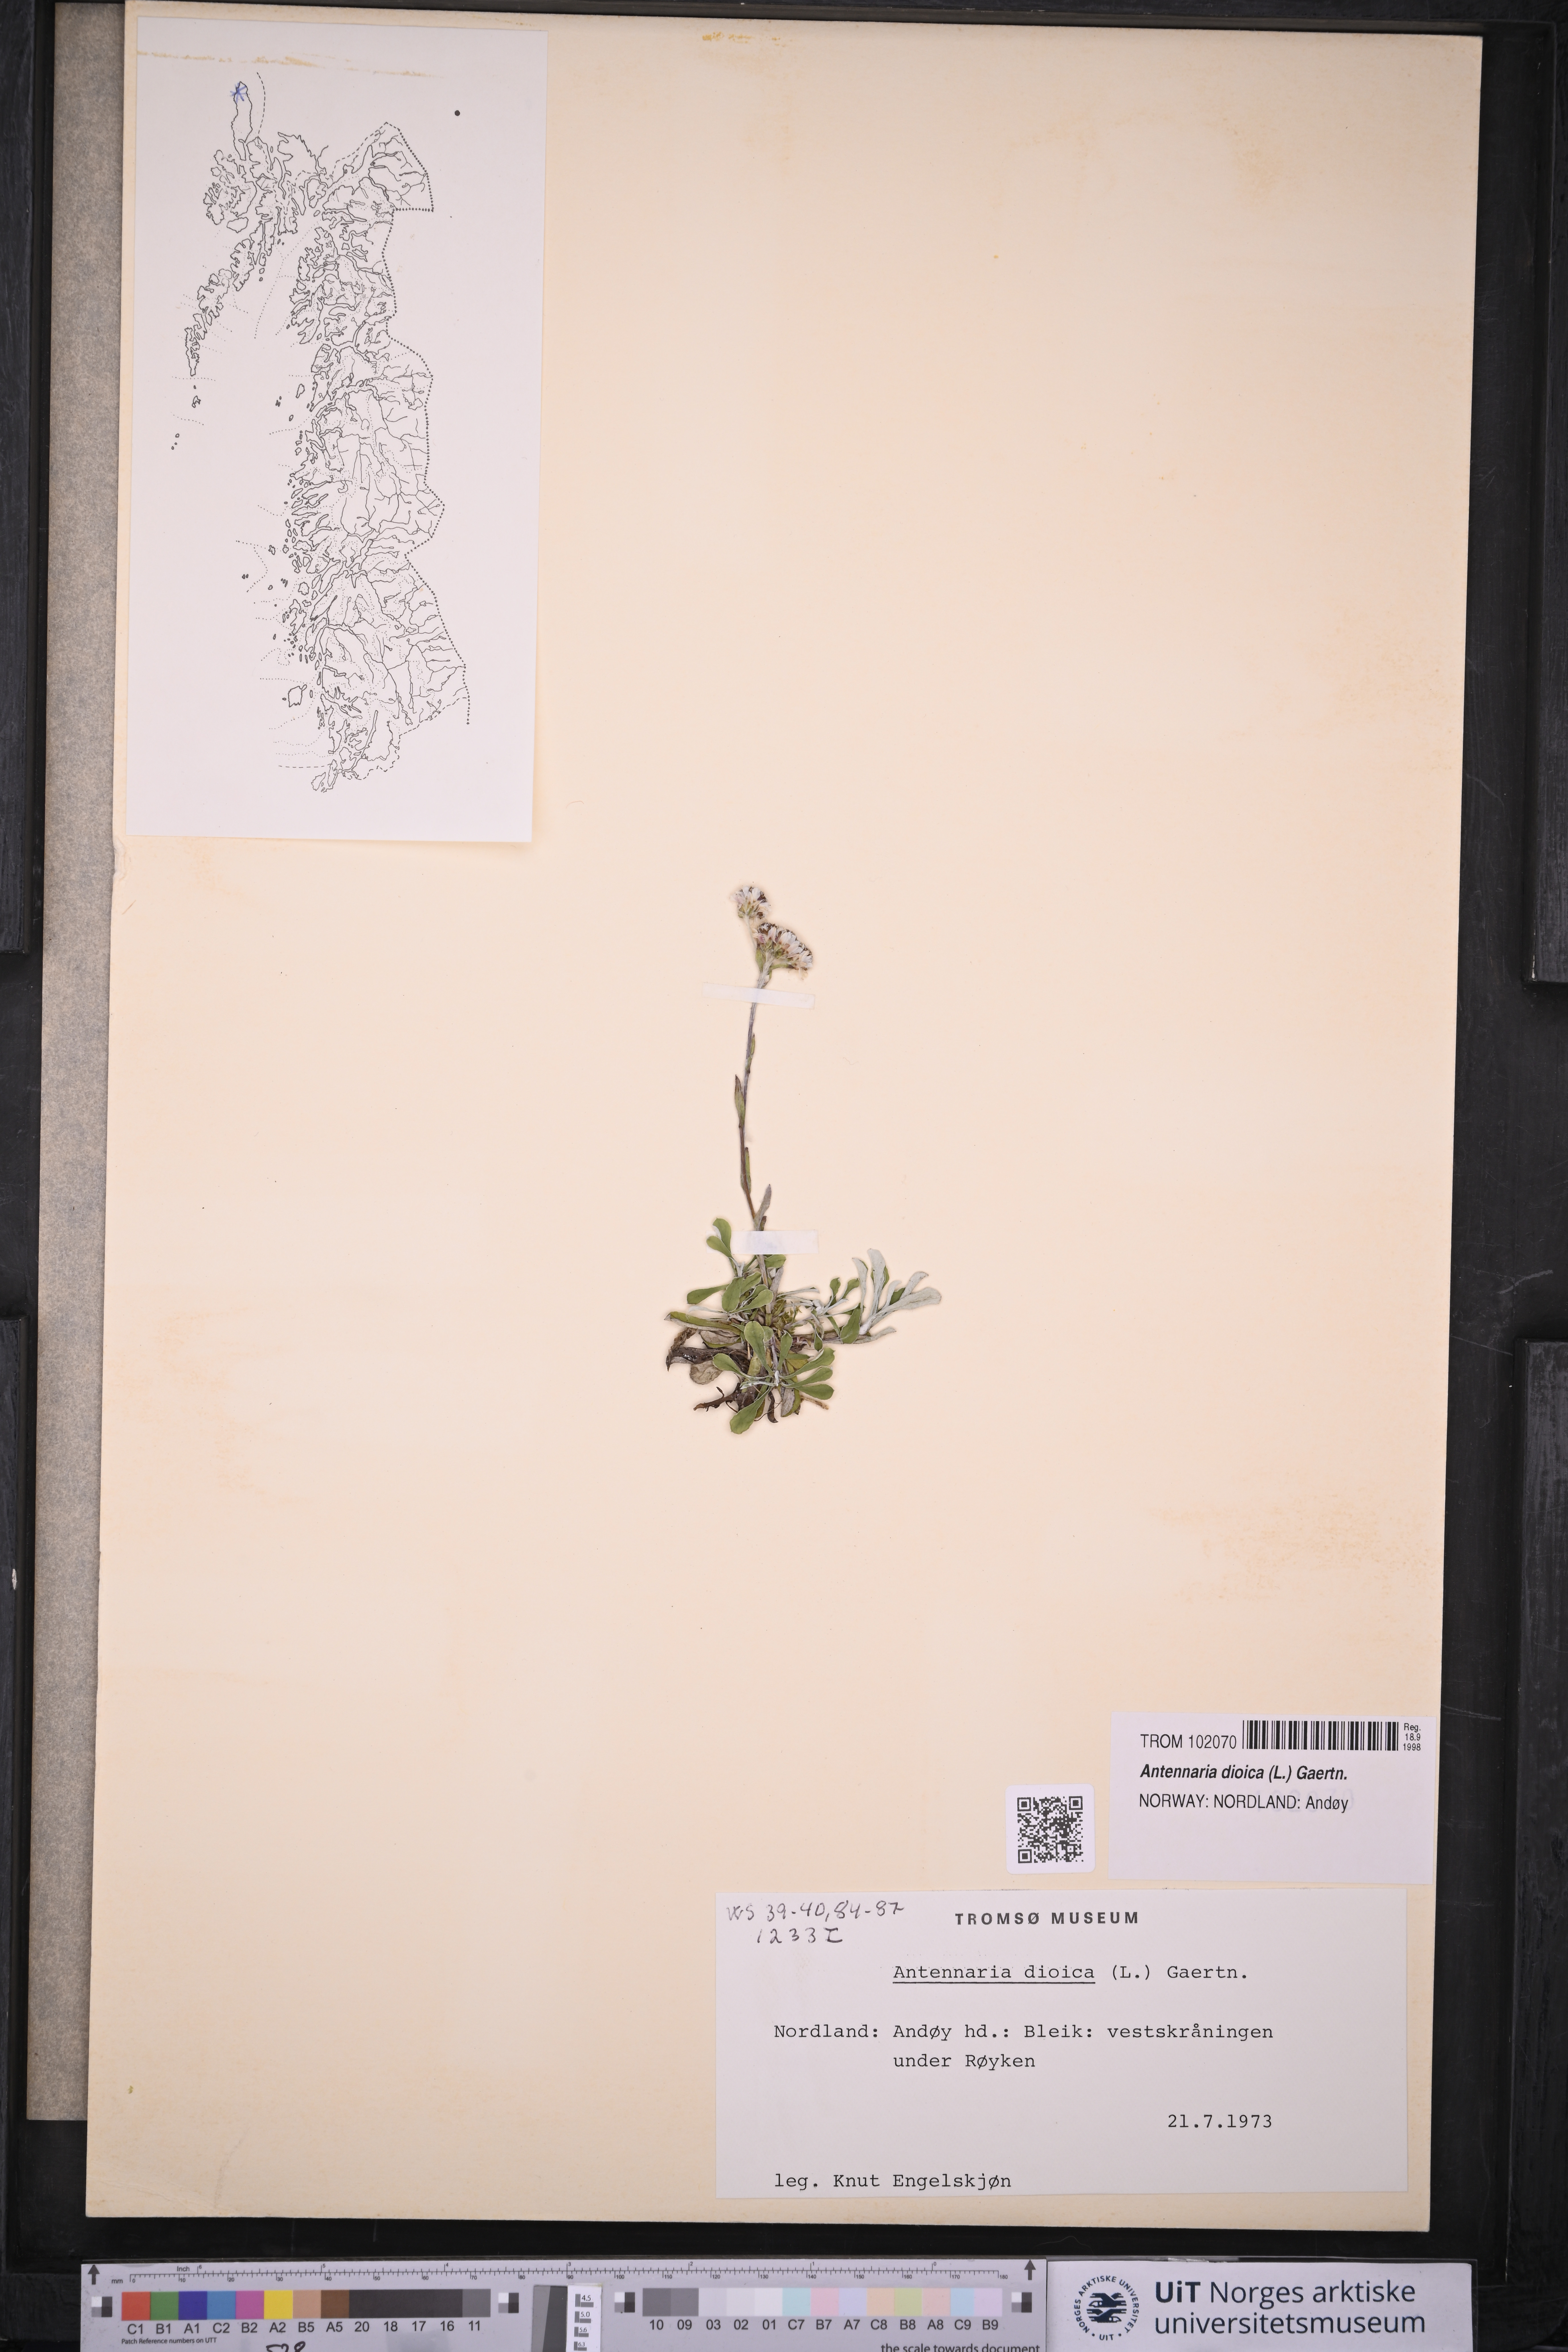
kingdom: Plantae
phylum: Tracheophyta
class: Magnoliopsida
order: Asterales
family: Asteraceae
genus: Antennaria
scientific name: Antennaria dioica
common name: Mountain everlasting
